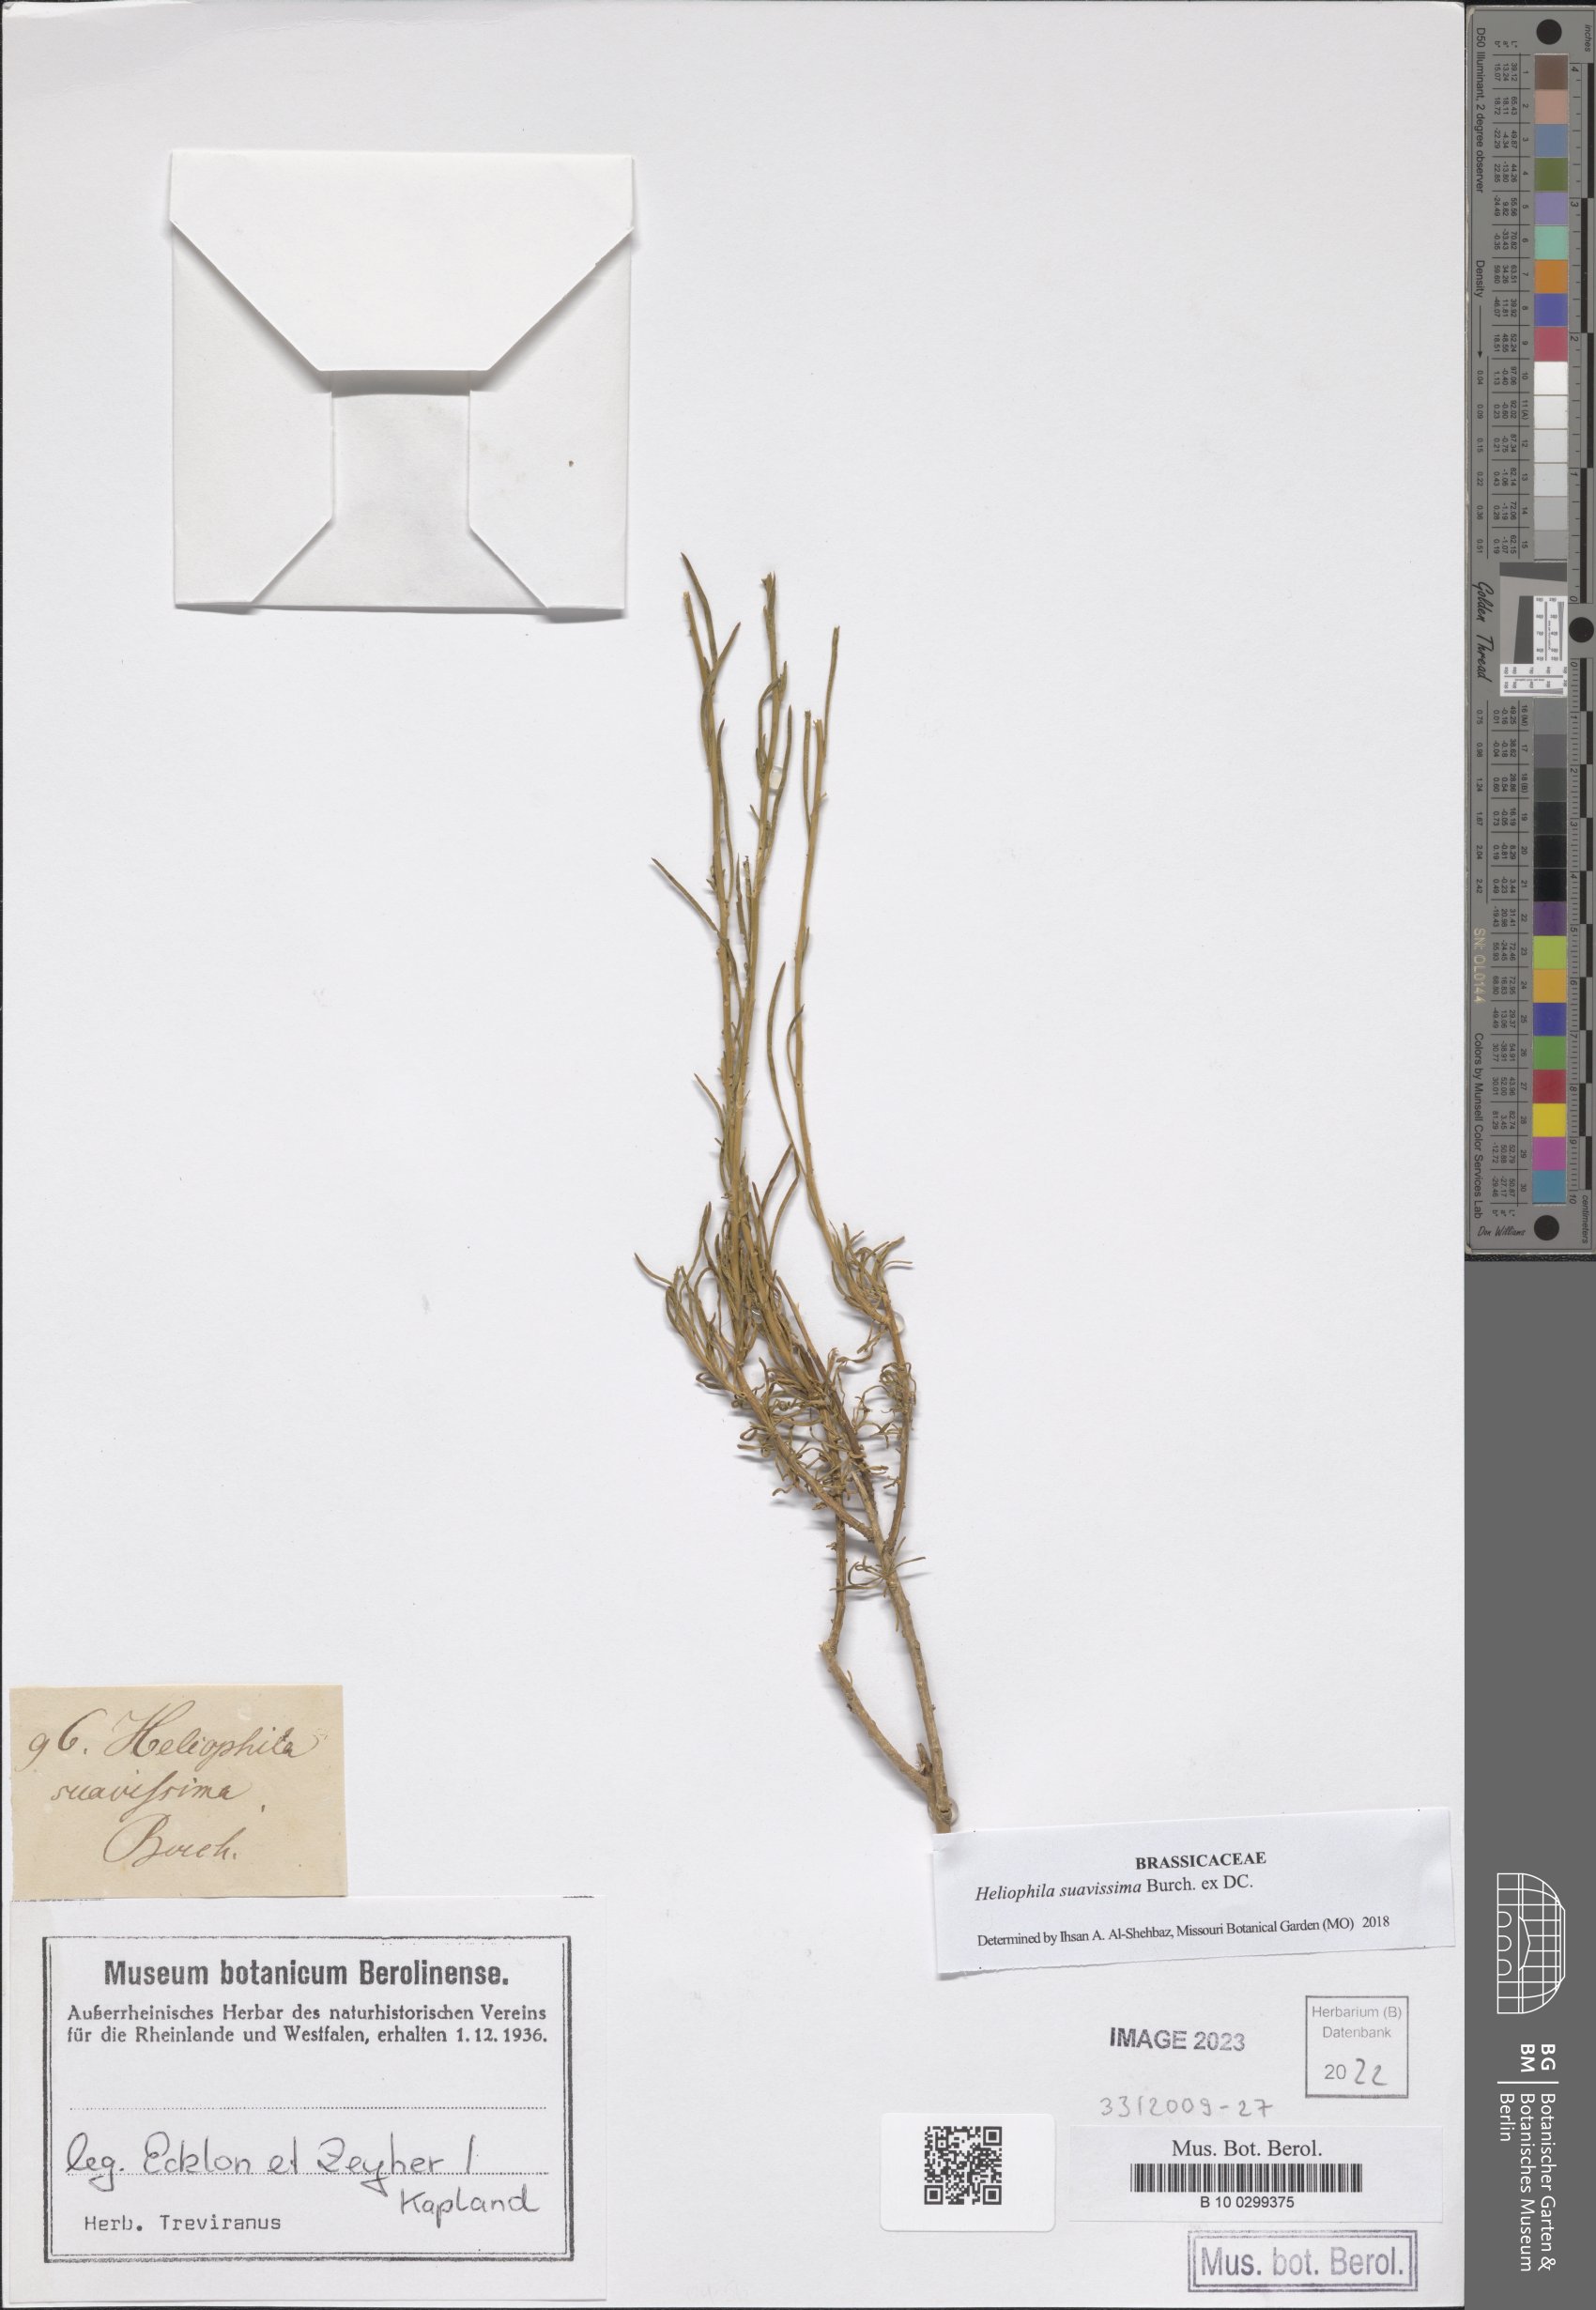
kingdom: Plantae
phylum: Tracheophyta
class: Magnoliopsida
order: Brassicales
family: Brassicaceae
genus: Heliophila
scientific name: Heliophila suavissima
